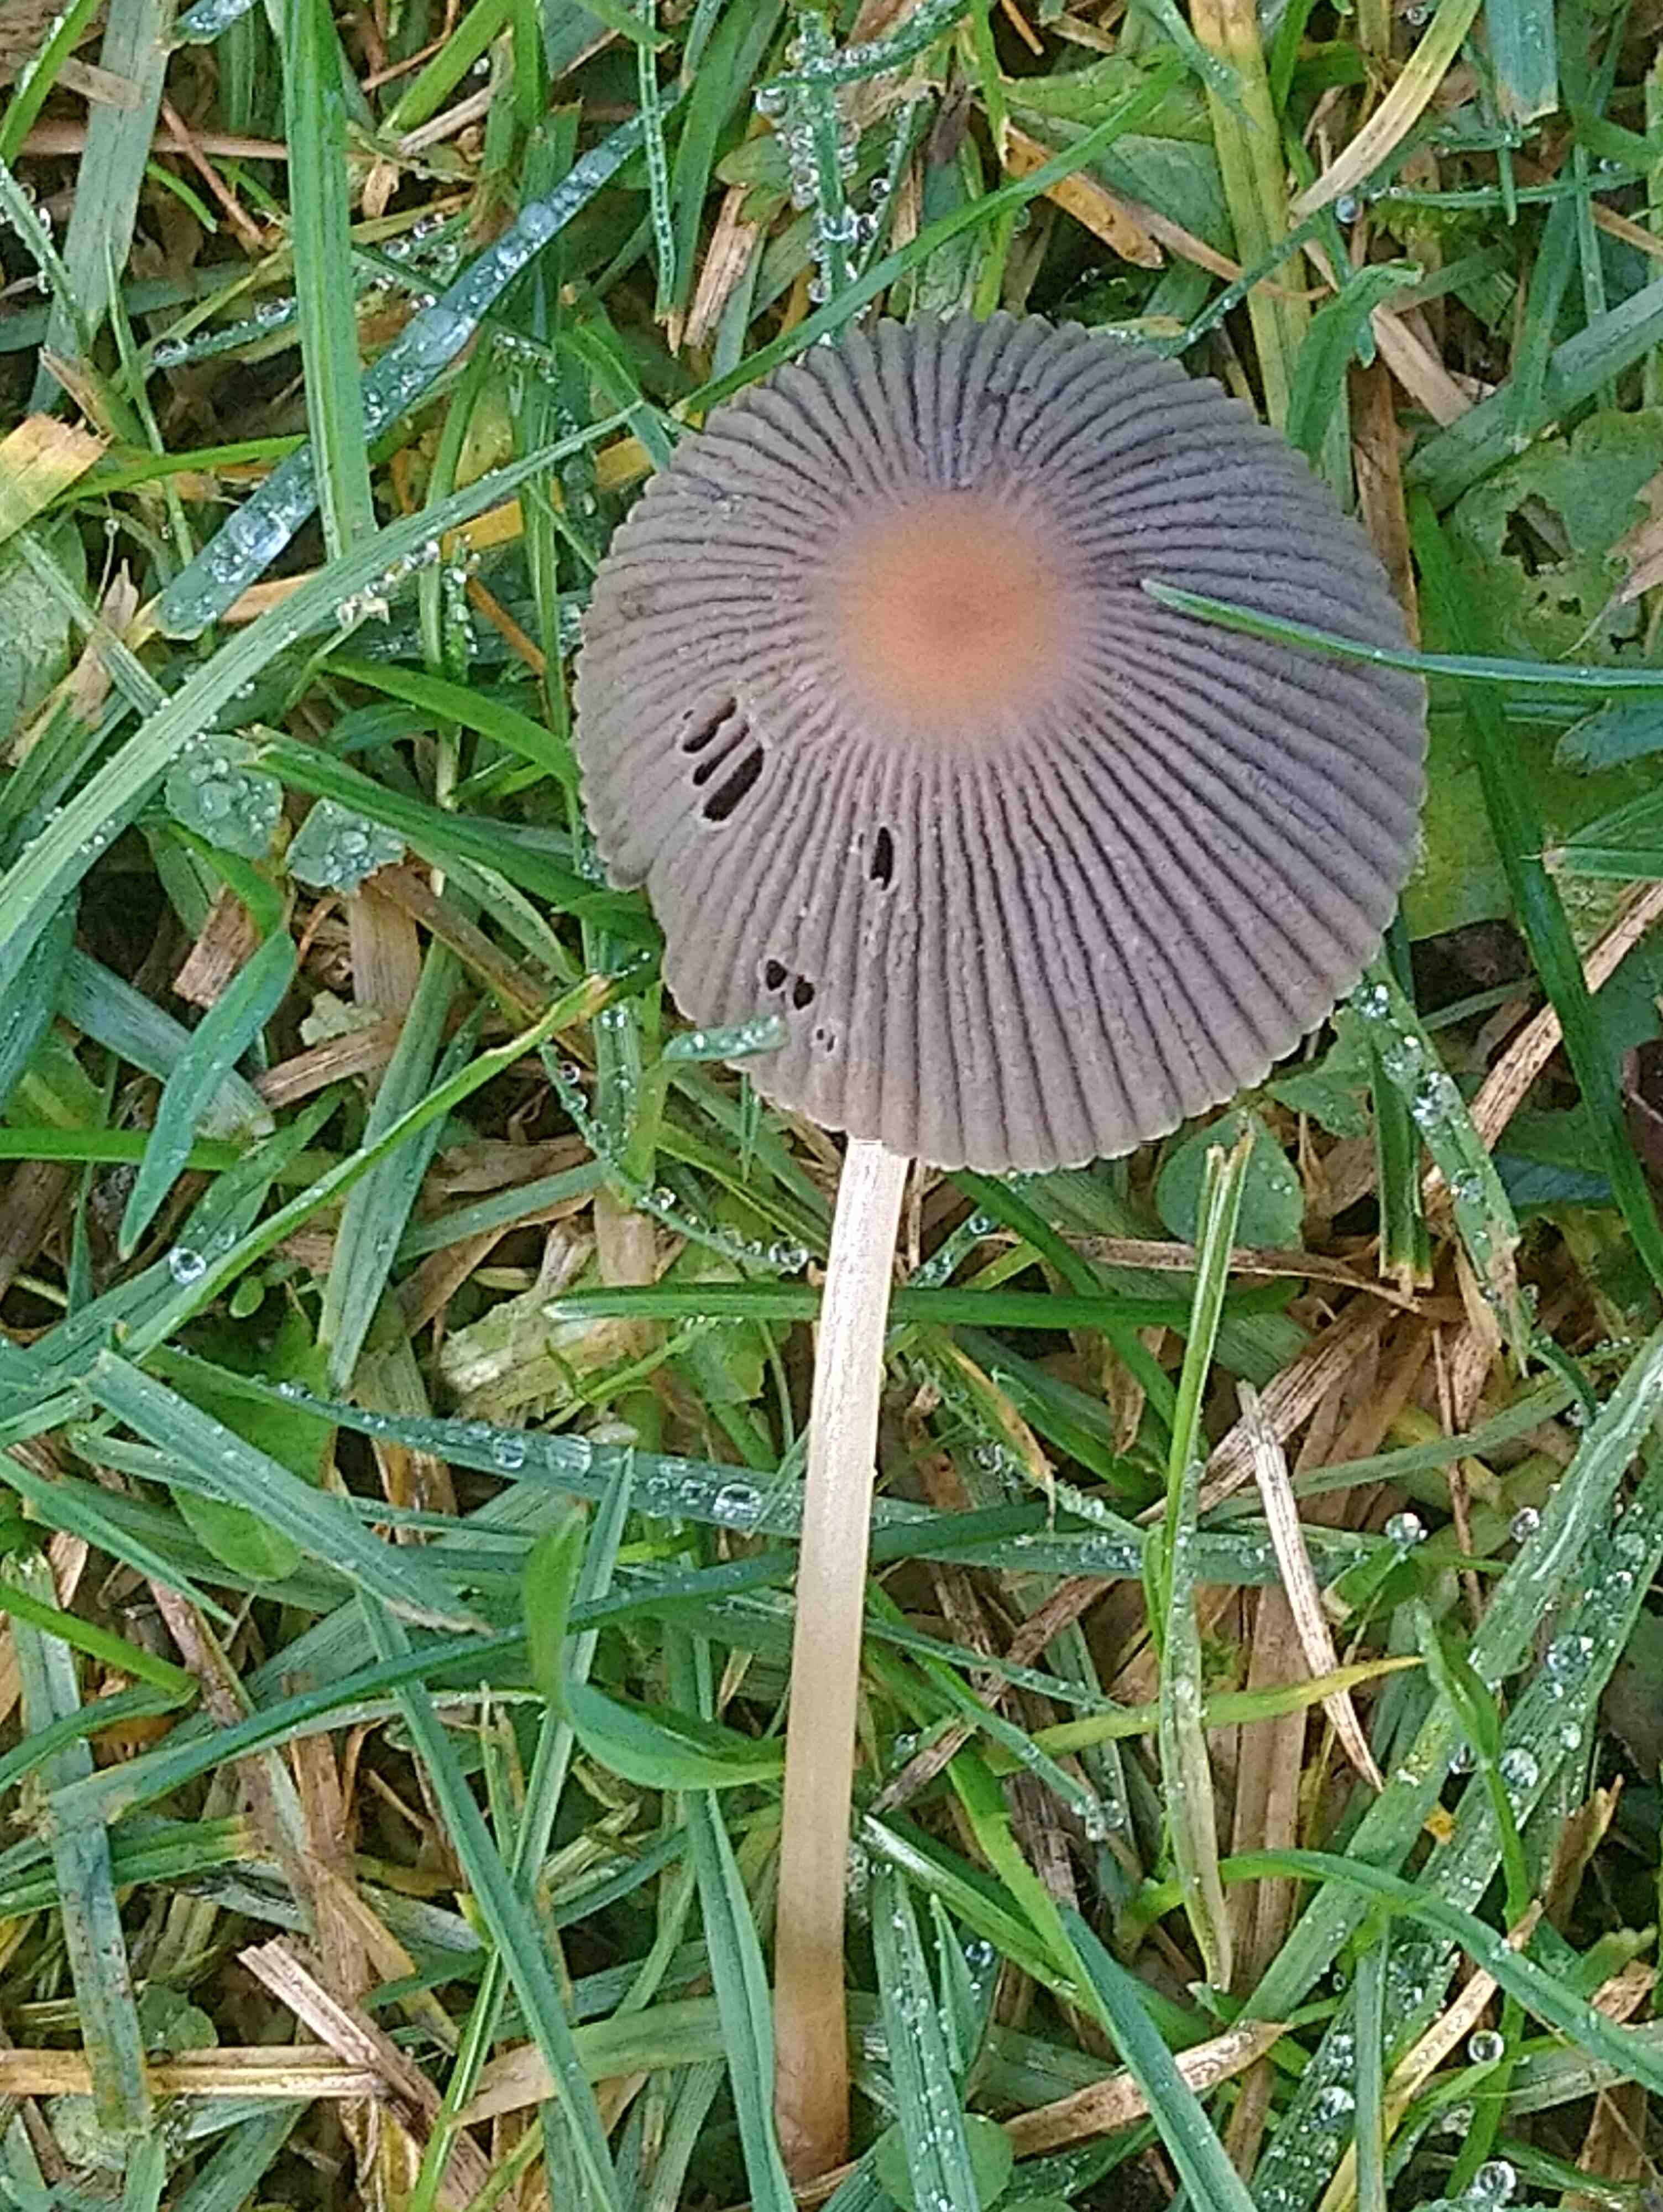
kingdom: Fungi
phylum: Basidiomycota
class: Agaricomycetes
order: Agaricales
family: Psathyrellaceae
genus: Parasola
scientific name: Parasola
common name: hjulhat
